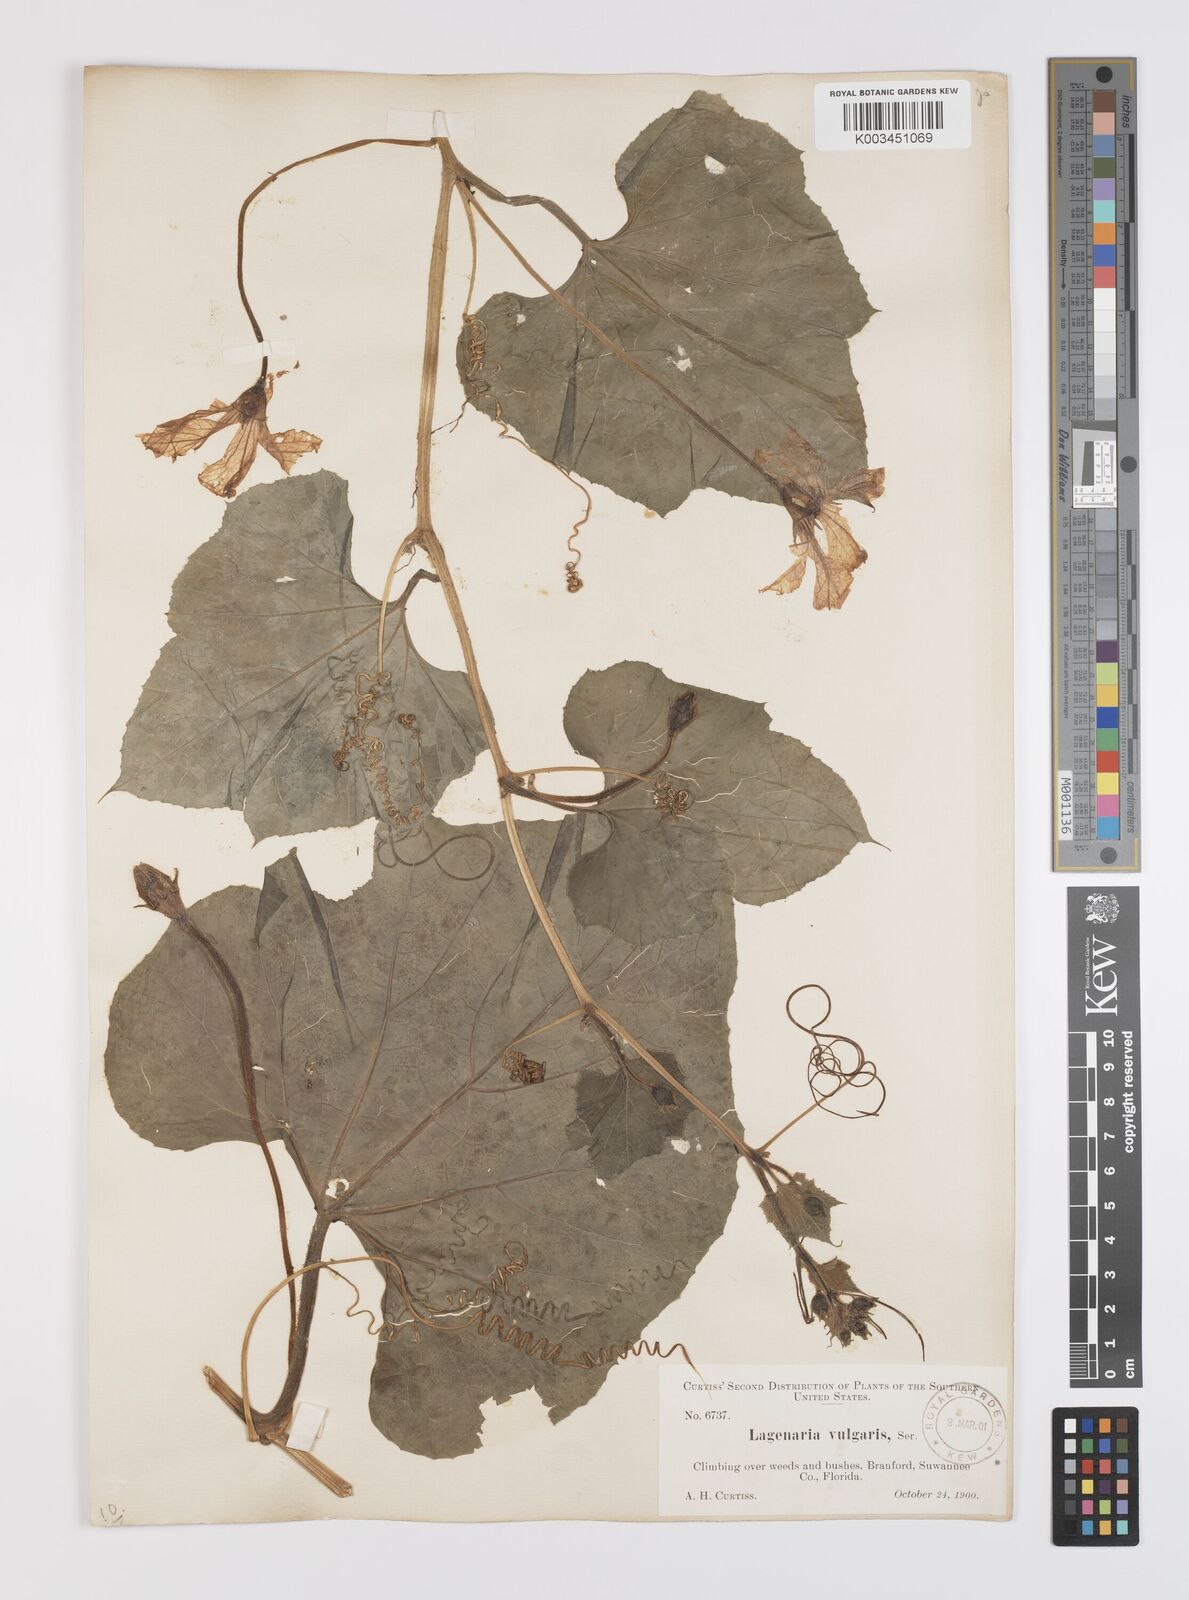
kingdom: Plantae
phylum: Tracheophyta
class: Magnoliopsida
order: Cucurbitales
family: Cucurbitaceae
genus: Lagenaria
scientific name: Lagenaria siceraria
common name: Bottle gourd
